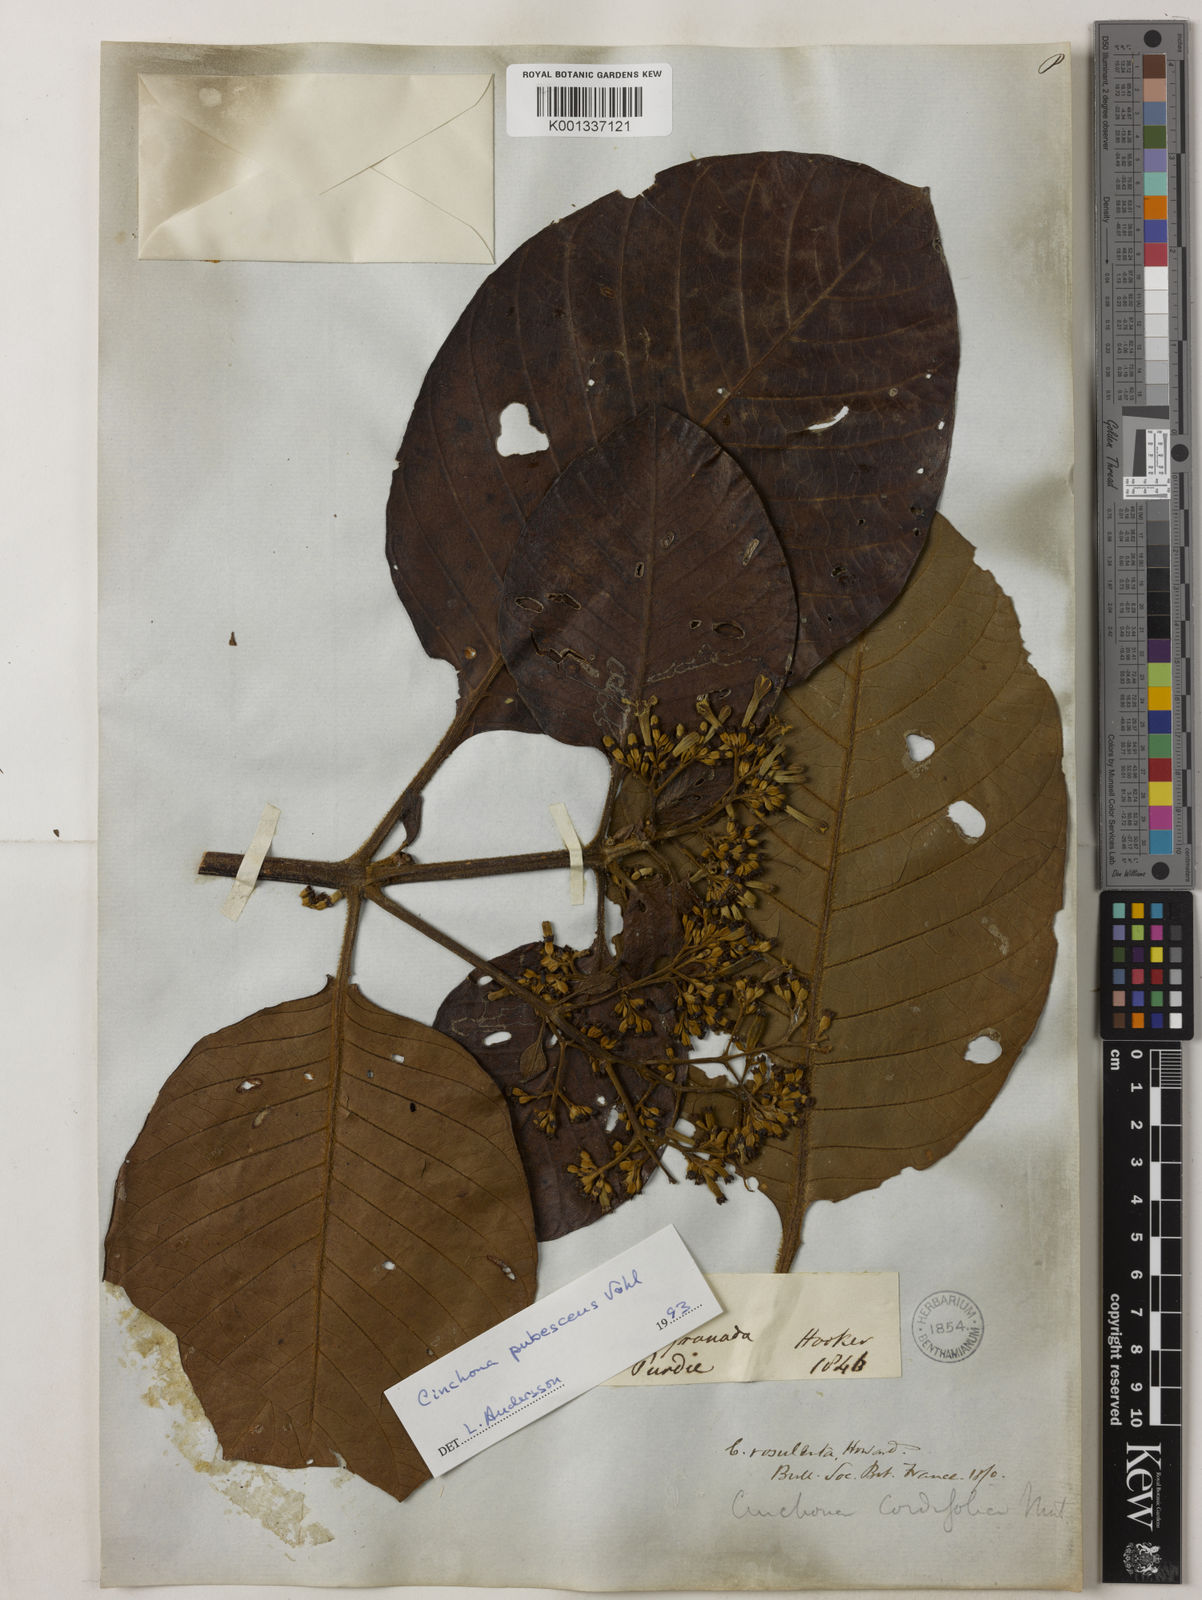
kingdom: Plantae
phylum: Tracheophyta
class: Magnoliopsida
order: Gentianales
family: Rubiaceae
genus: Cinchona
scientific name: Cinchona pubescens
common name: Quinine
